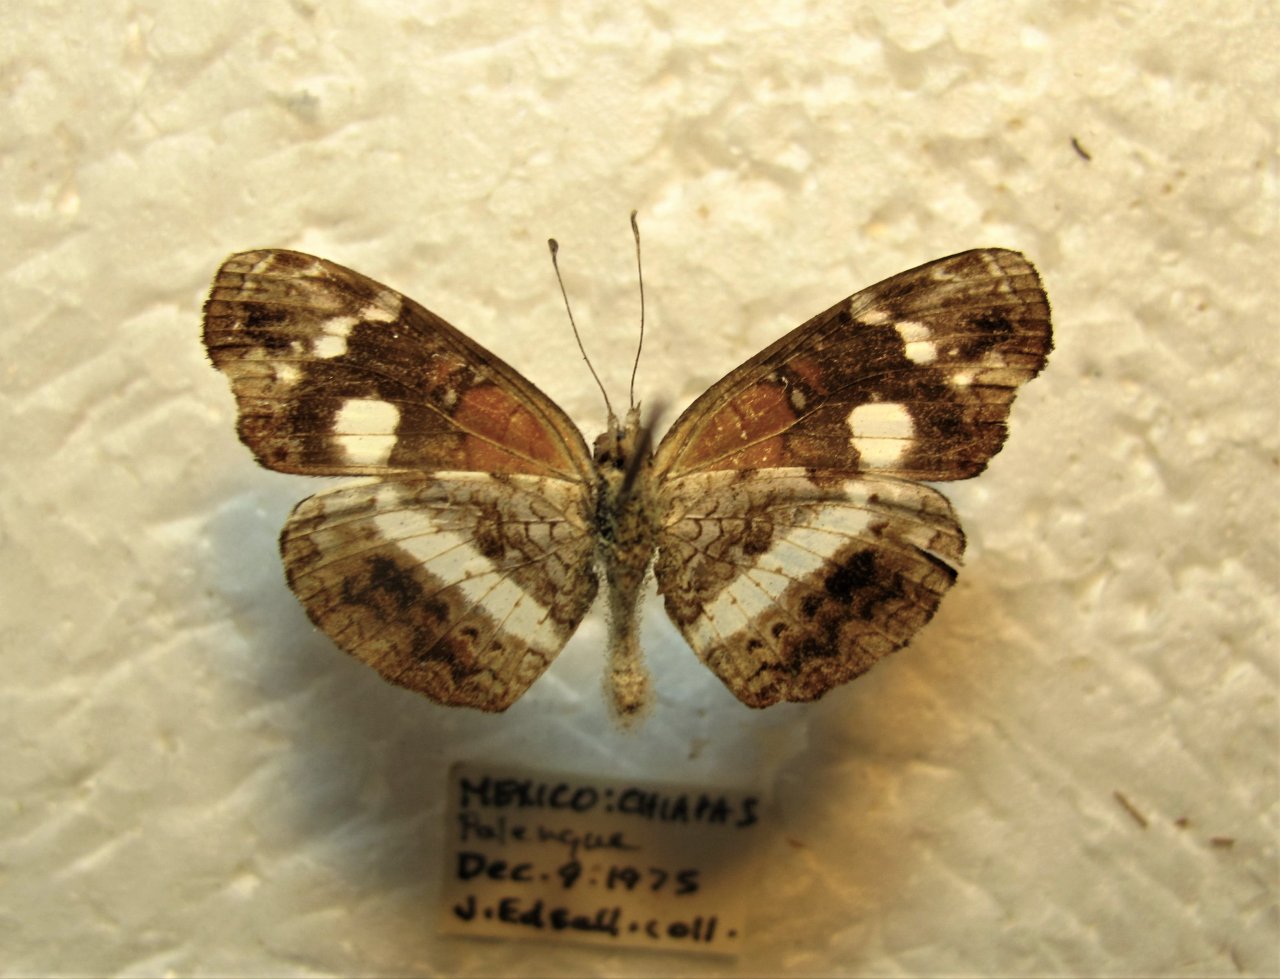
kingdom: Animalia
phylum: Arthropoda
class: Insecta
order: Lepidoptera
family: Nymphalidae
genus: Castilia
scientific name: Castilia myia
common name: Mayan Crescent
